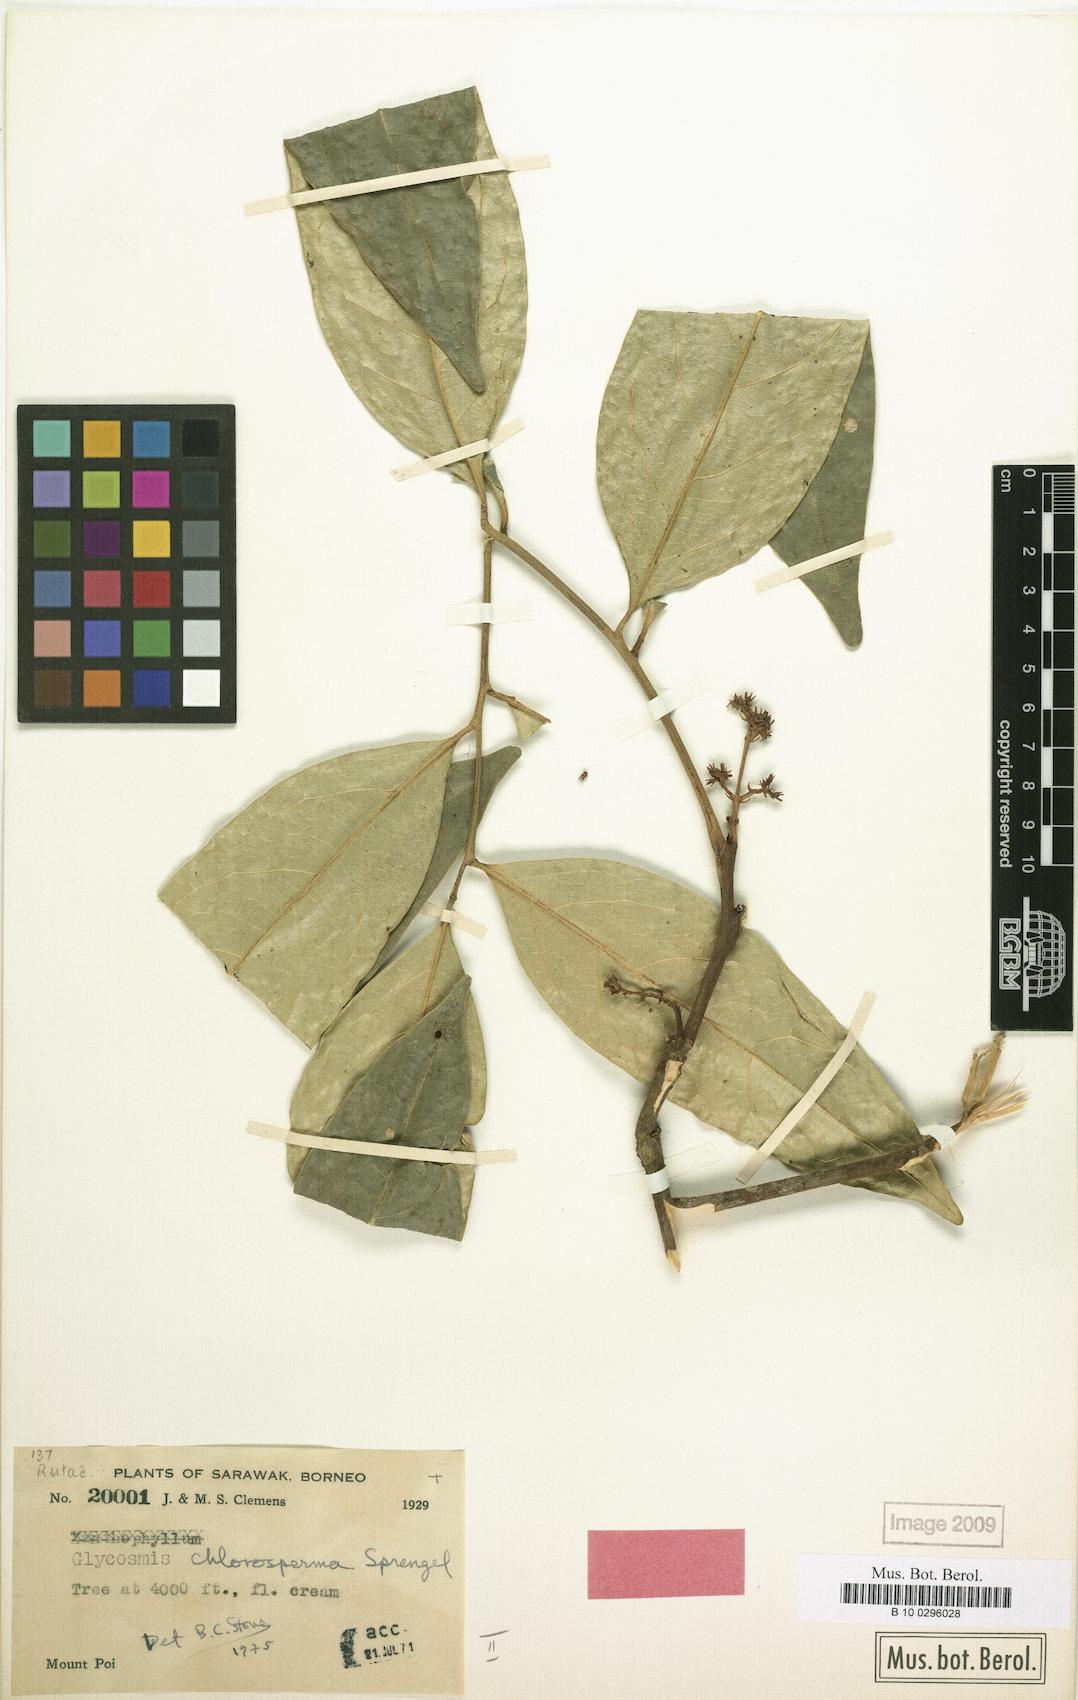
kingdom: Plantae
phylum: Tracheophyta
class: Magnoliopsida
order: Sapindales
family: Rutaceae
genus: Glycosmis
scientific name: Glycosmis longisepala
